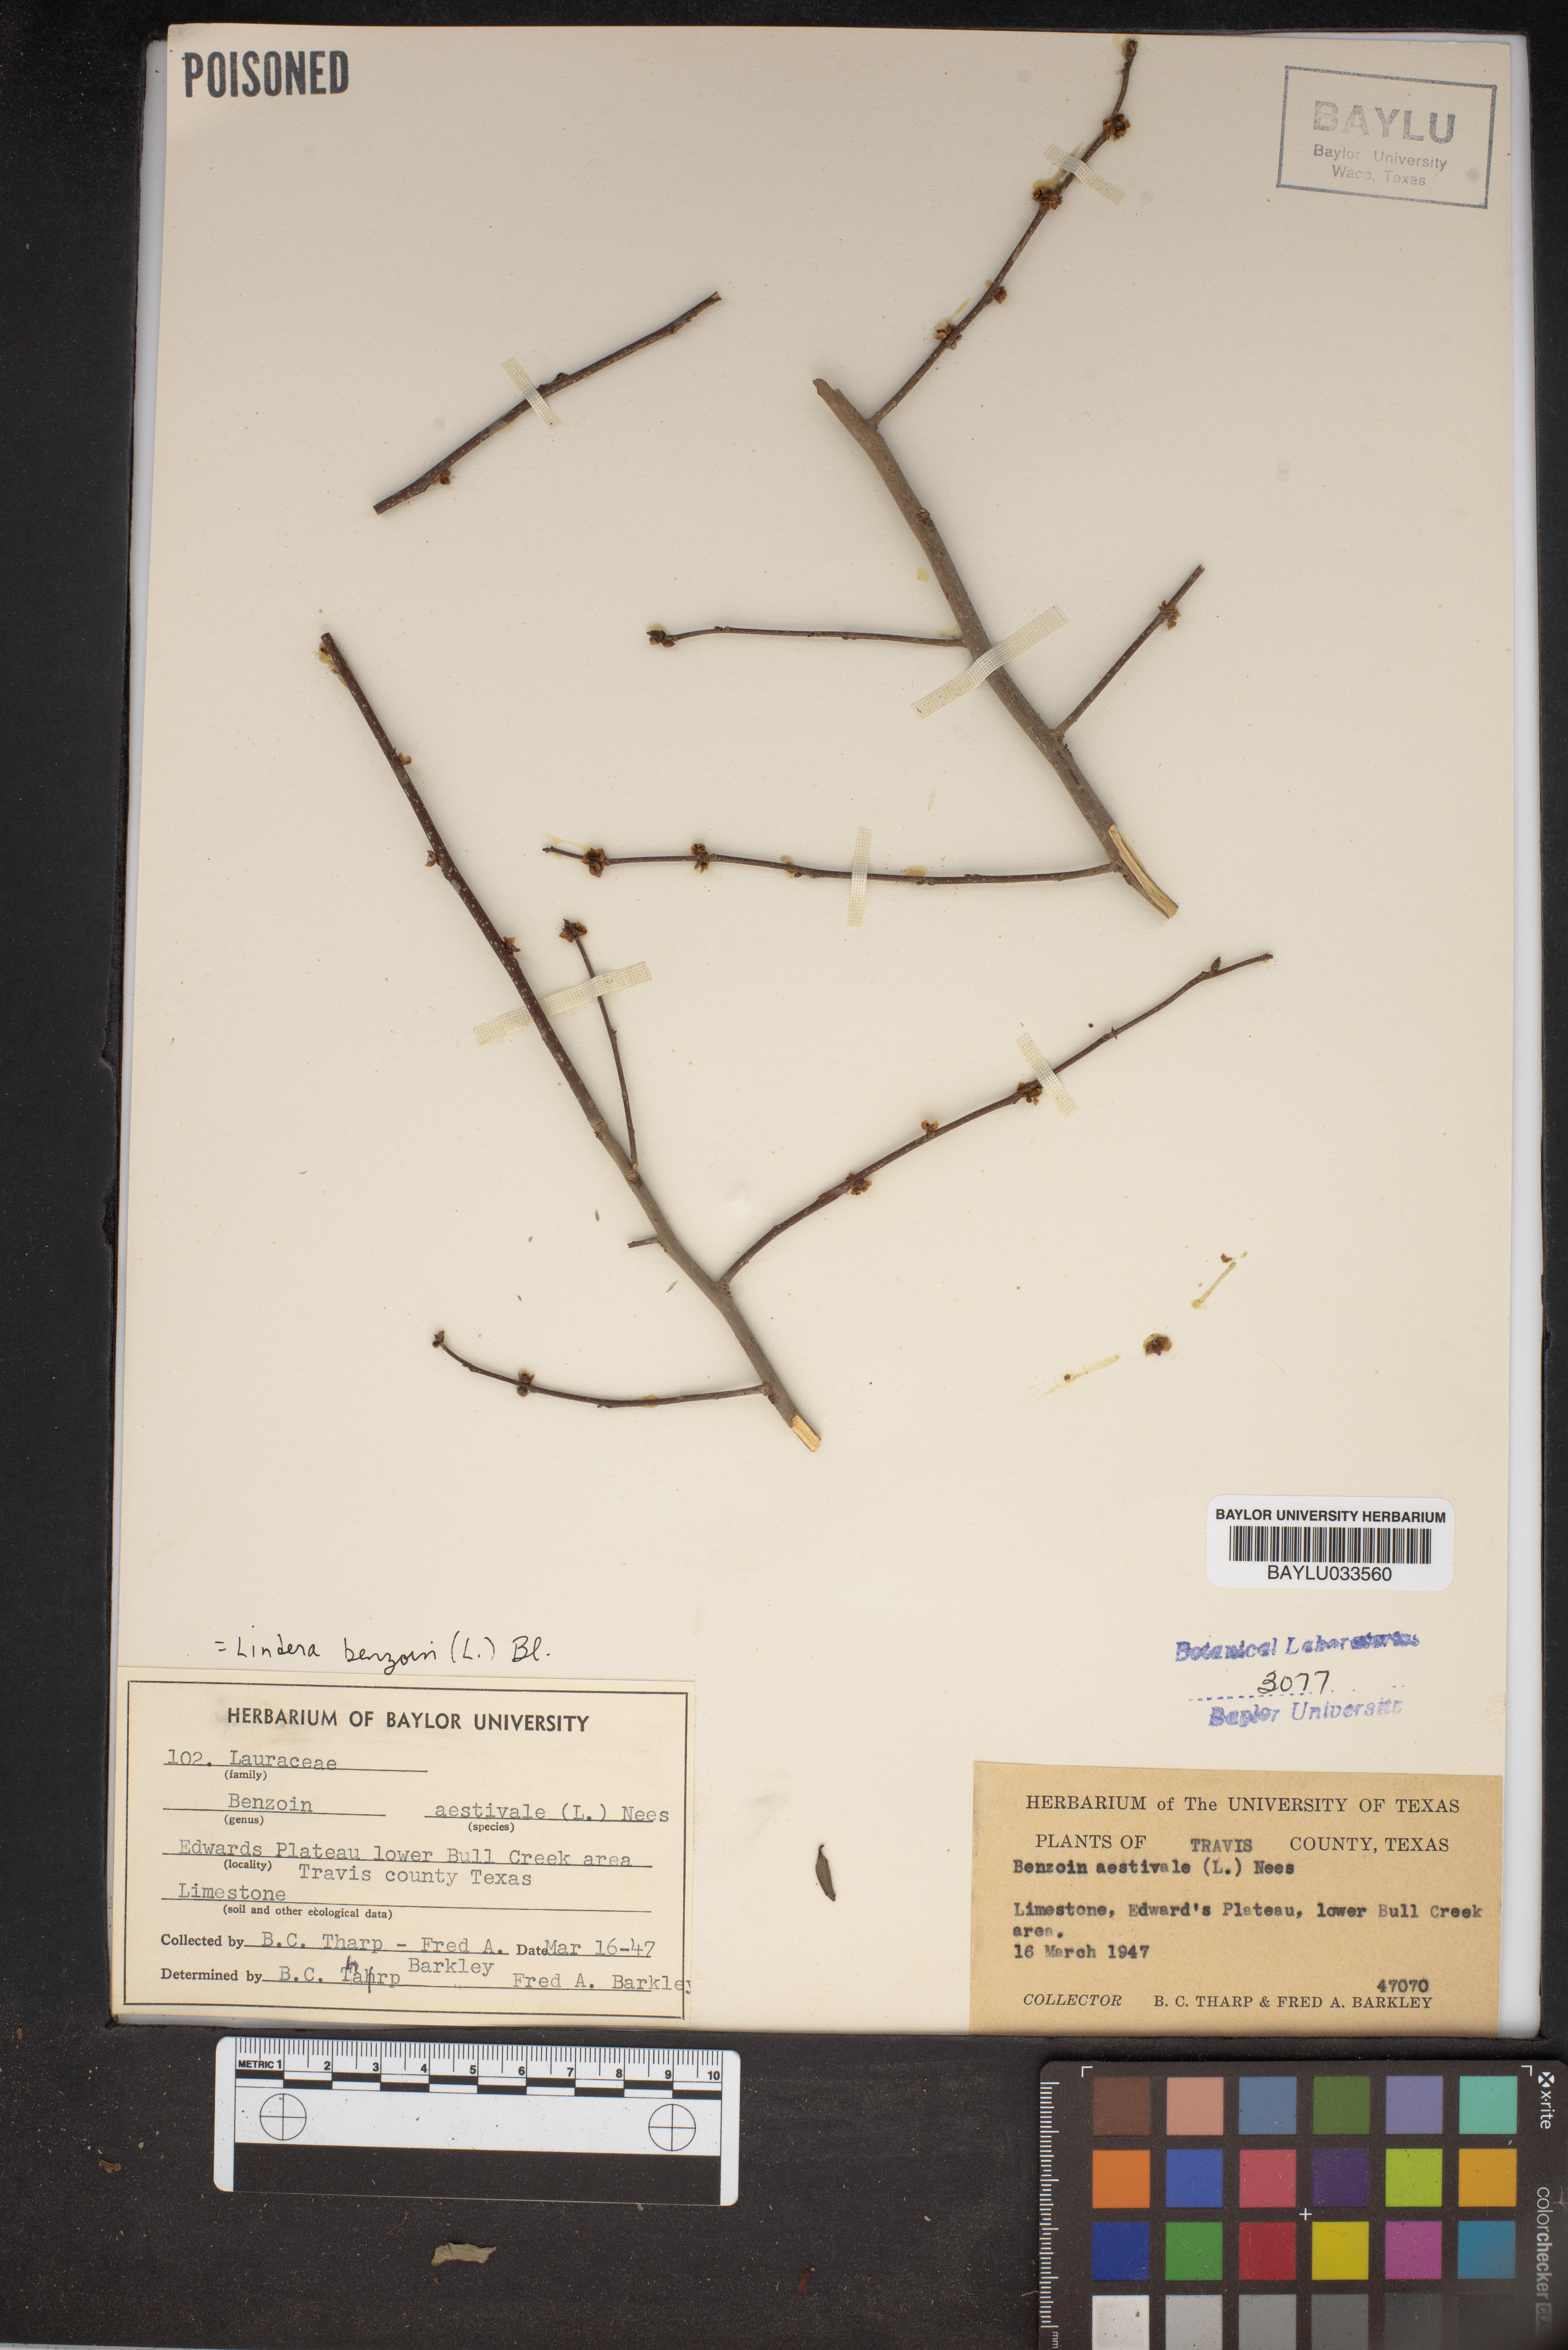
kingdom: Plantae
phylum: Tracheophyta
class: Magnoliopsida
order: Laurales
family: Lauraceae
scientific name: Lauraceae
